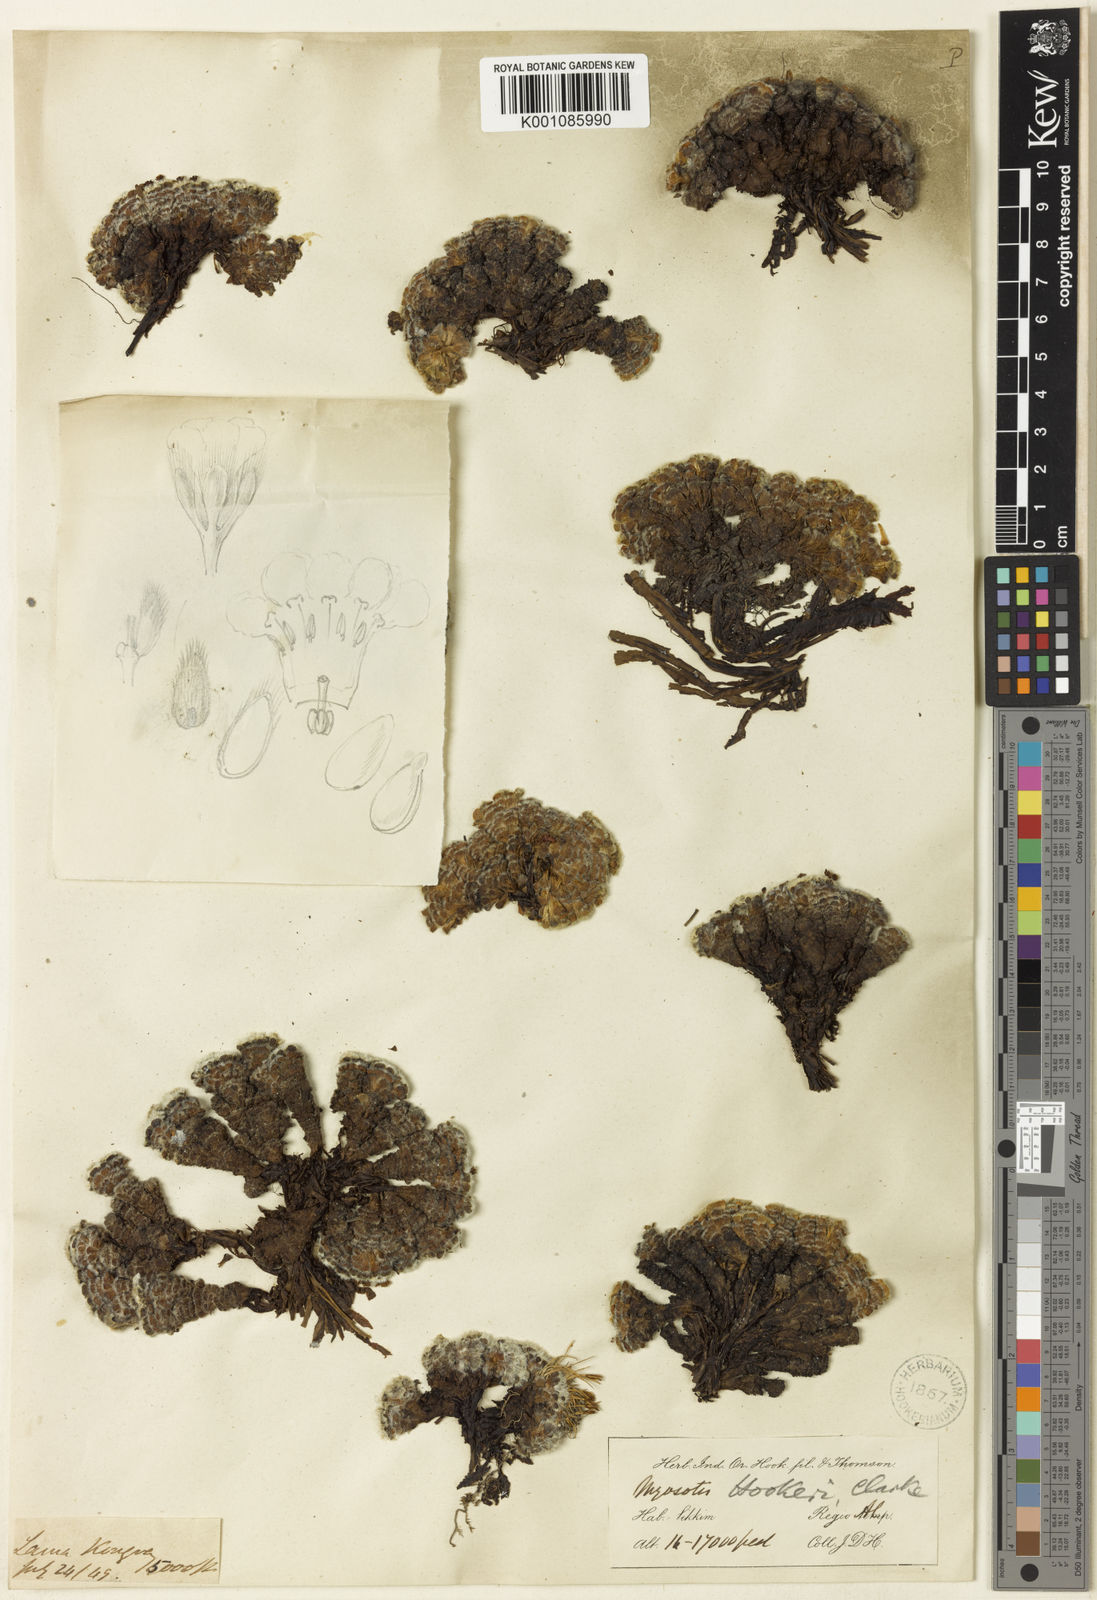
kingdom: Plantae
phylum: Tracheophyta
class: Magnoliopsida
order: Boraginales
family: Boraginaceae
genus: Chionocharis
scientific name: Chionocharis hookeri
